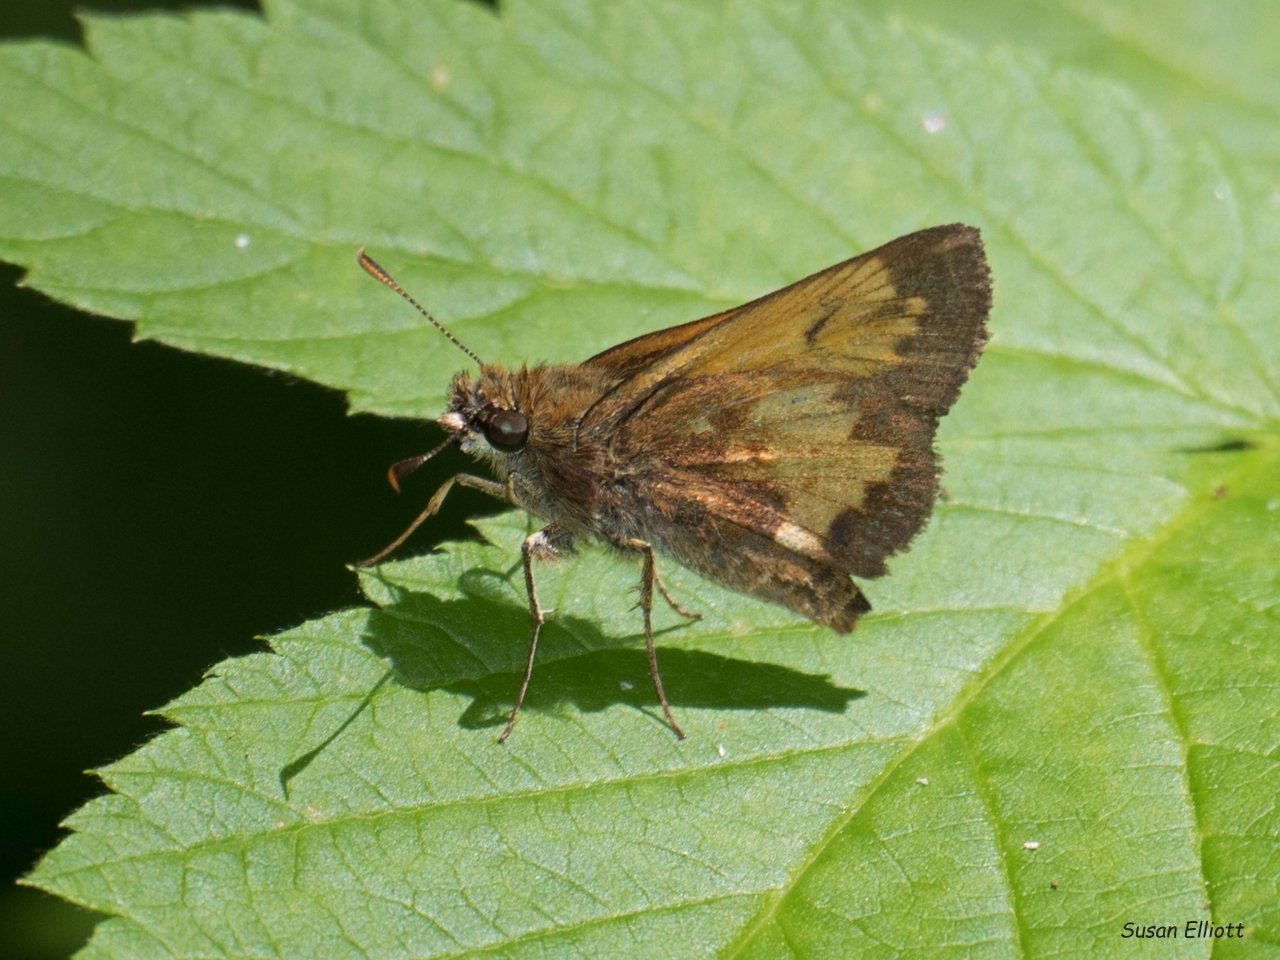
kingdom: Animalia
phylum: Arthropoda
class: Insecta
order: Lepidoptera
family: Hesperiidae
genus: Lon
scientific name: Lon hobomok
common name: Hobomok Skipper
